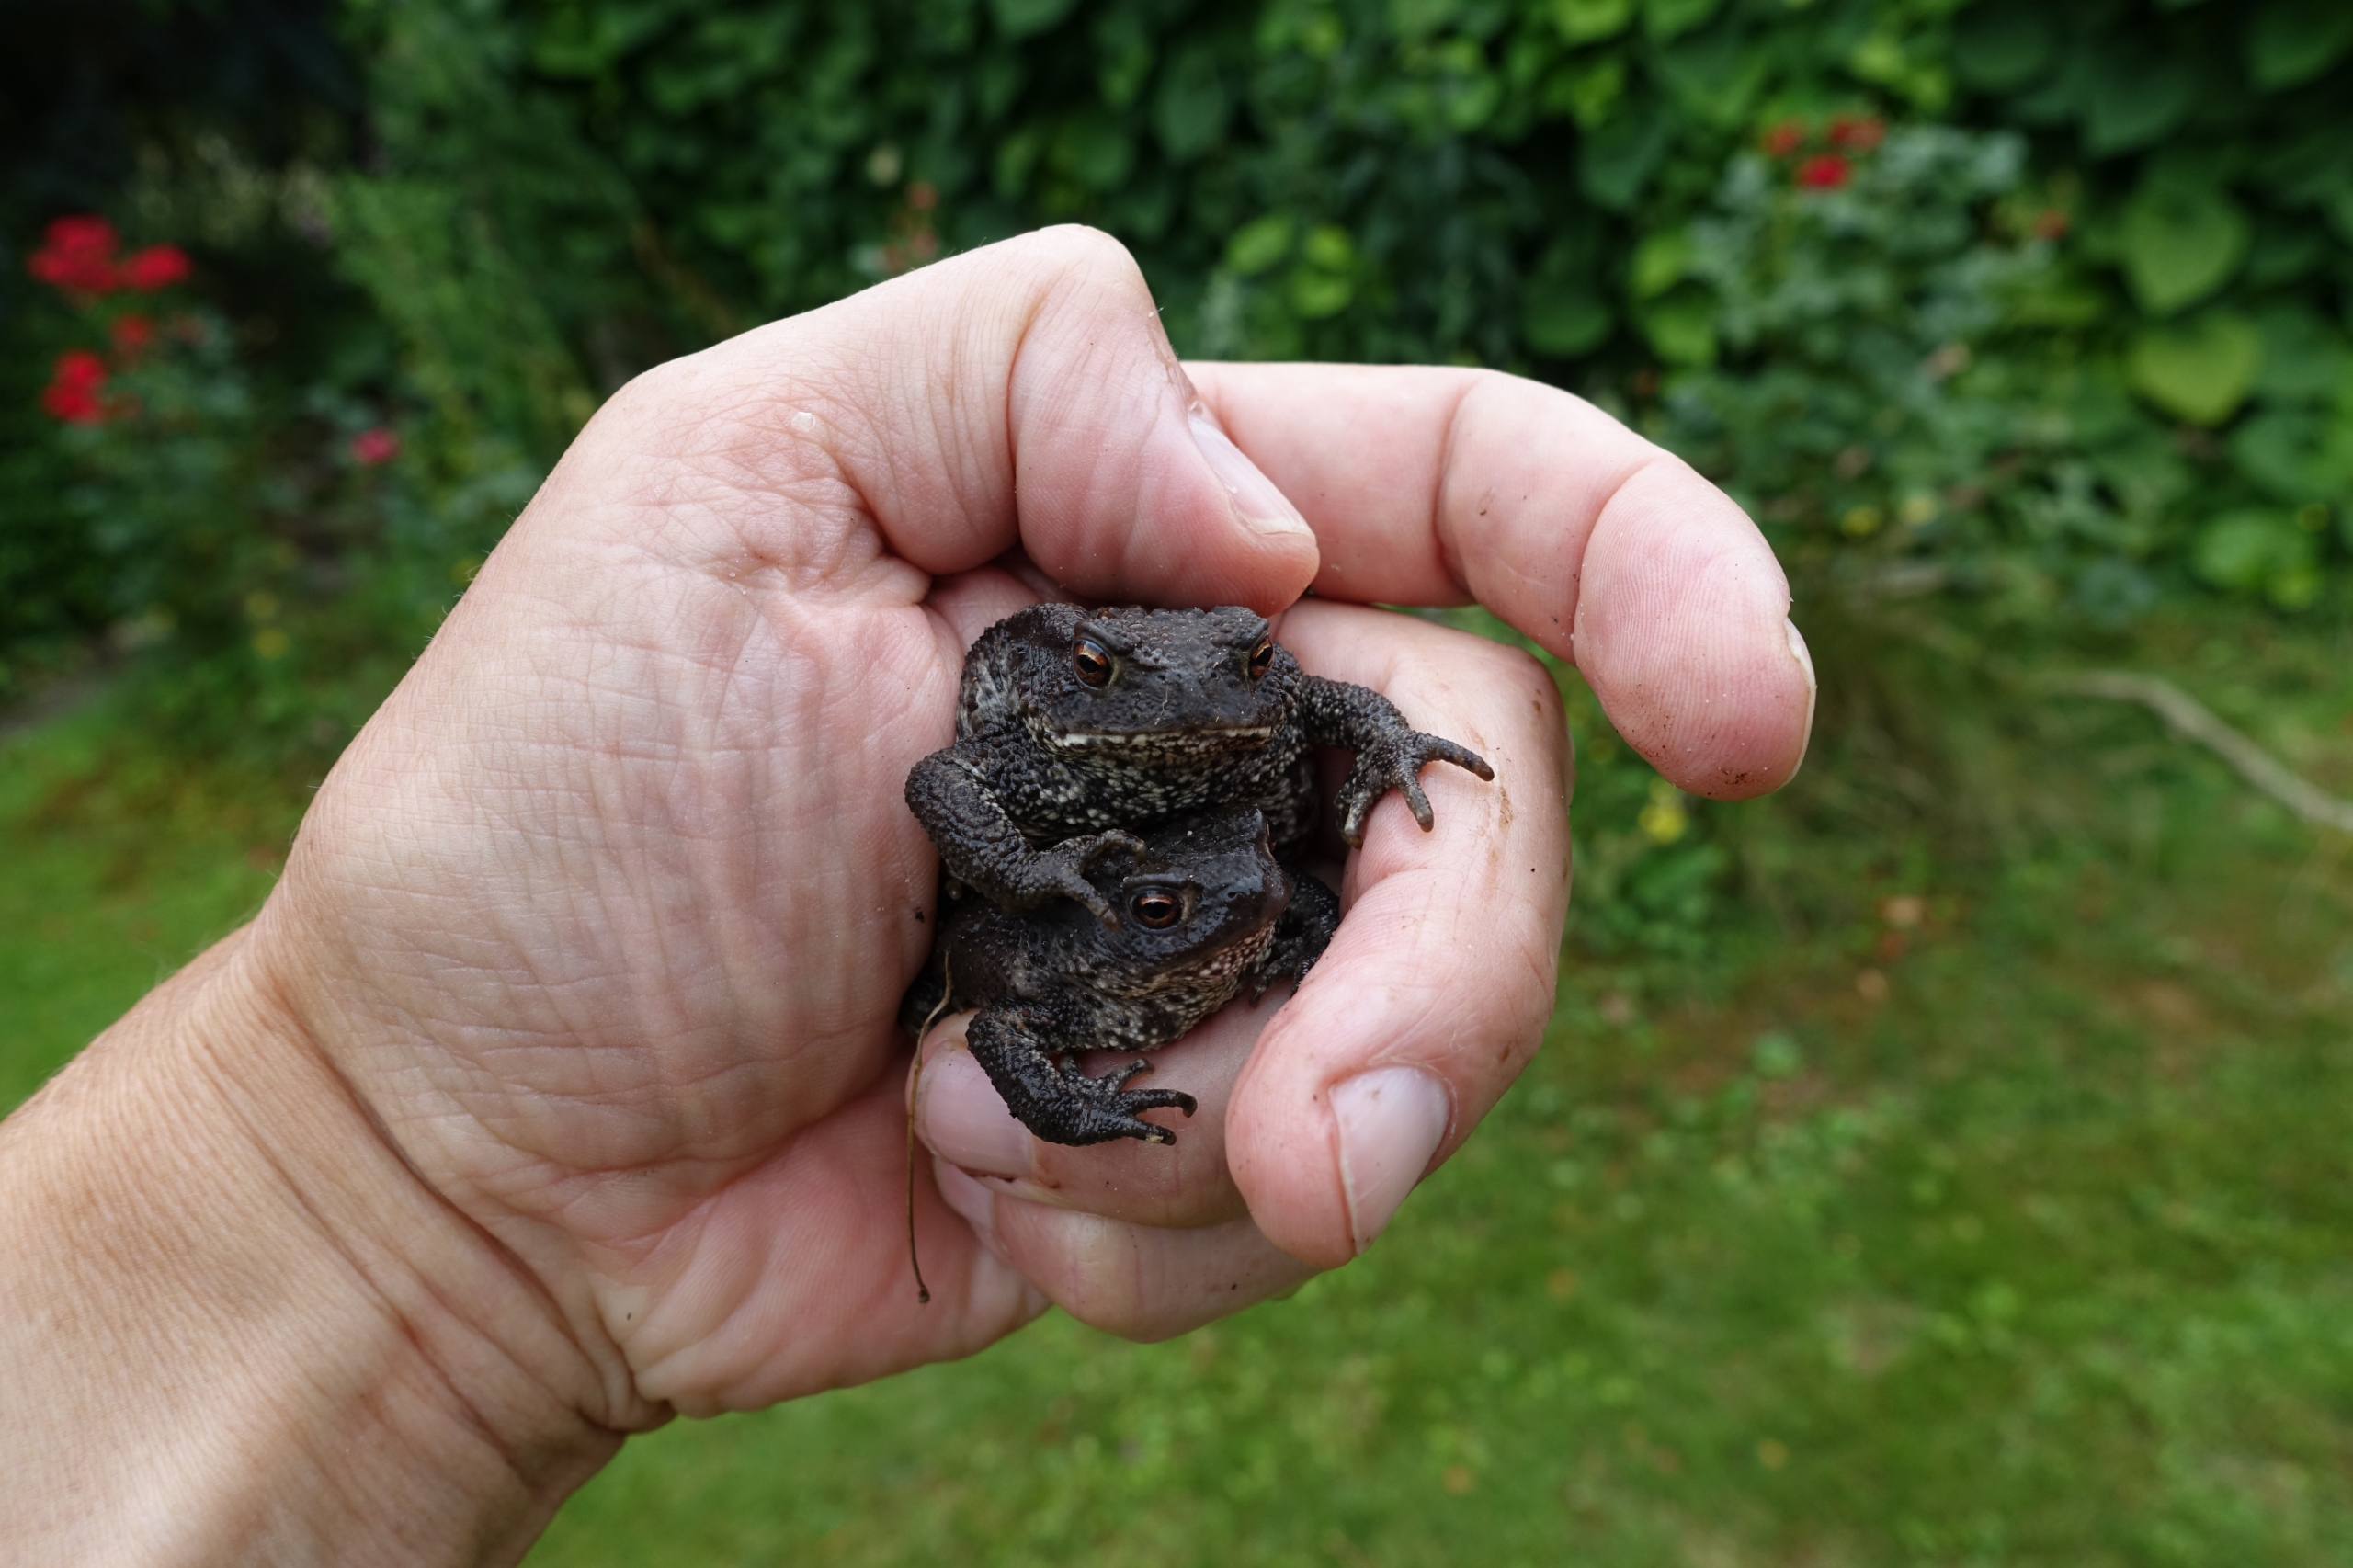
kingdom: Animalia
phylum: Chordata
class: Amphibia
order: Anura
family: Bufonidae
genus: Bufo
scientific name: Bufo bufo
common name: Skrubtudse
